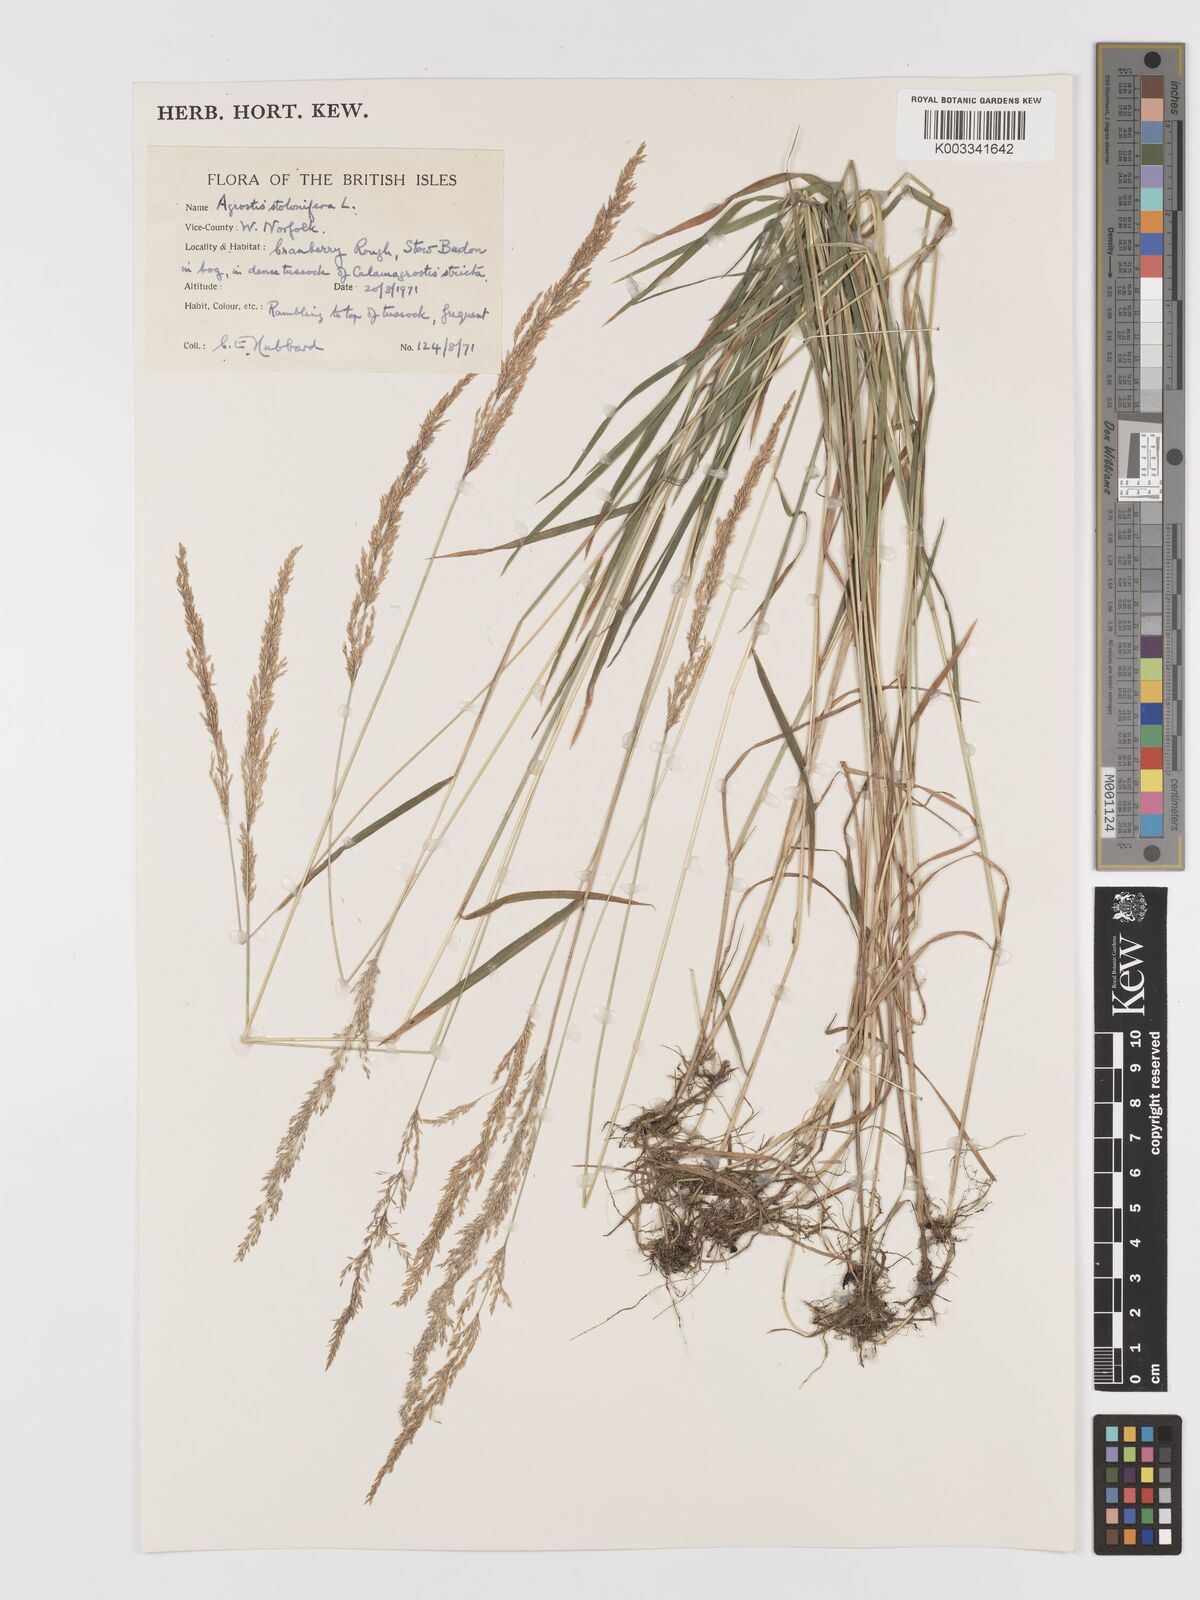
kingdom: Plantae
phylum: Tracheophyta
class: Liliopsida
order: Poales
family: Poaceae
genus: Agrostis
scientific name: Agrostis stolonifera
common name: Creeping bentgrass
